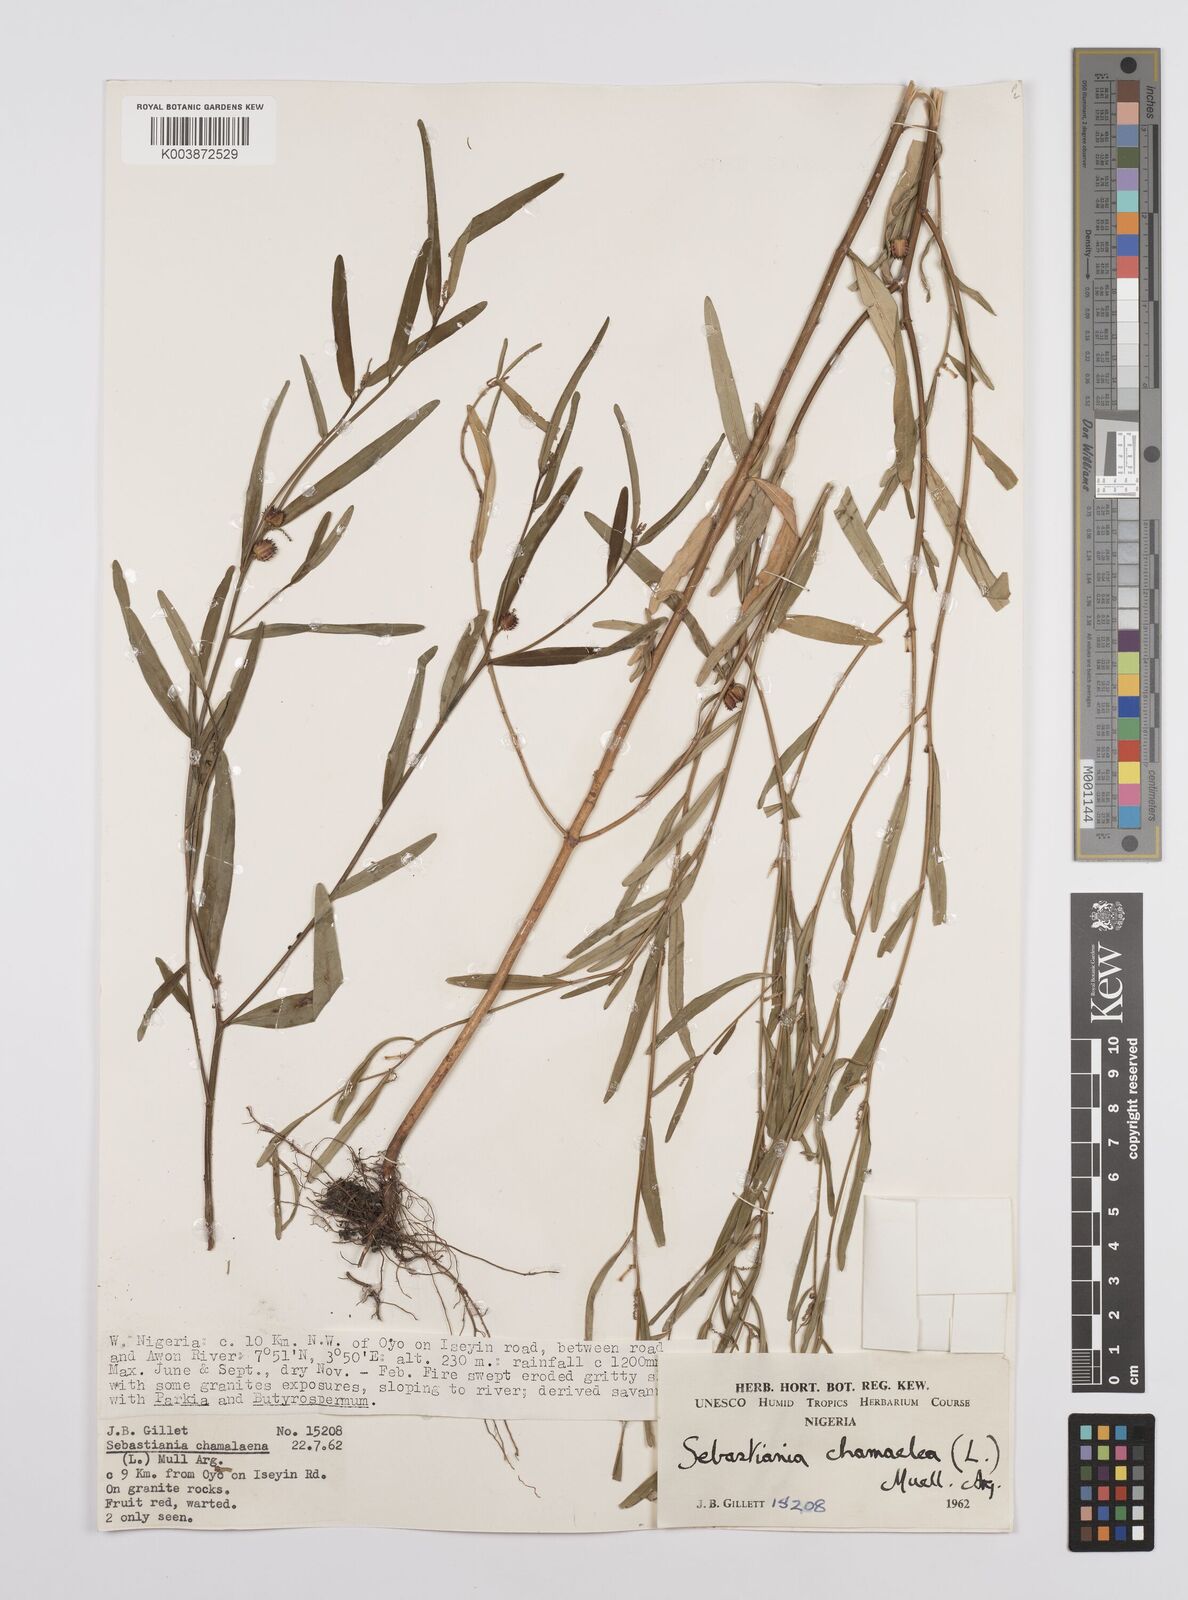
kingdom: Plantae
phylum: Tracheophyta
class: Magnoliopsida
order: Malpighiales
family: Euphorbiaceae
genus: Microstachys
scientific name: Microstachys chamaelea
